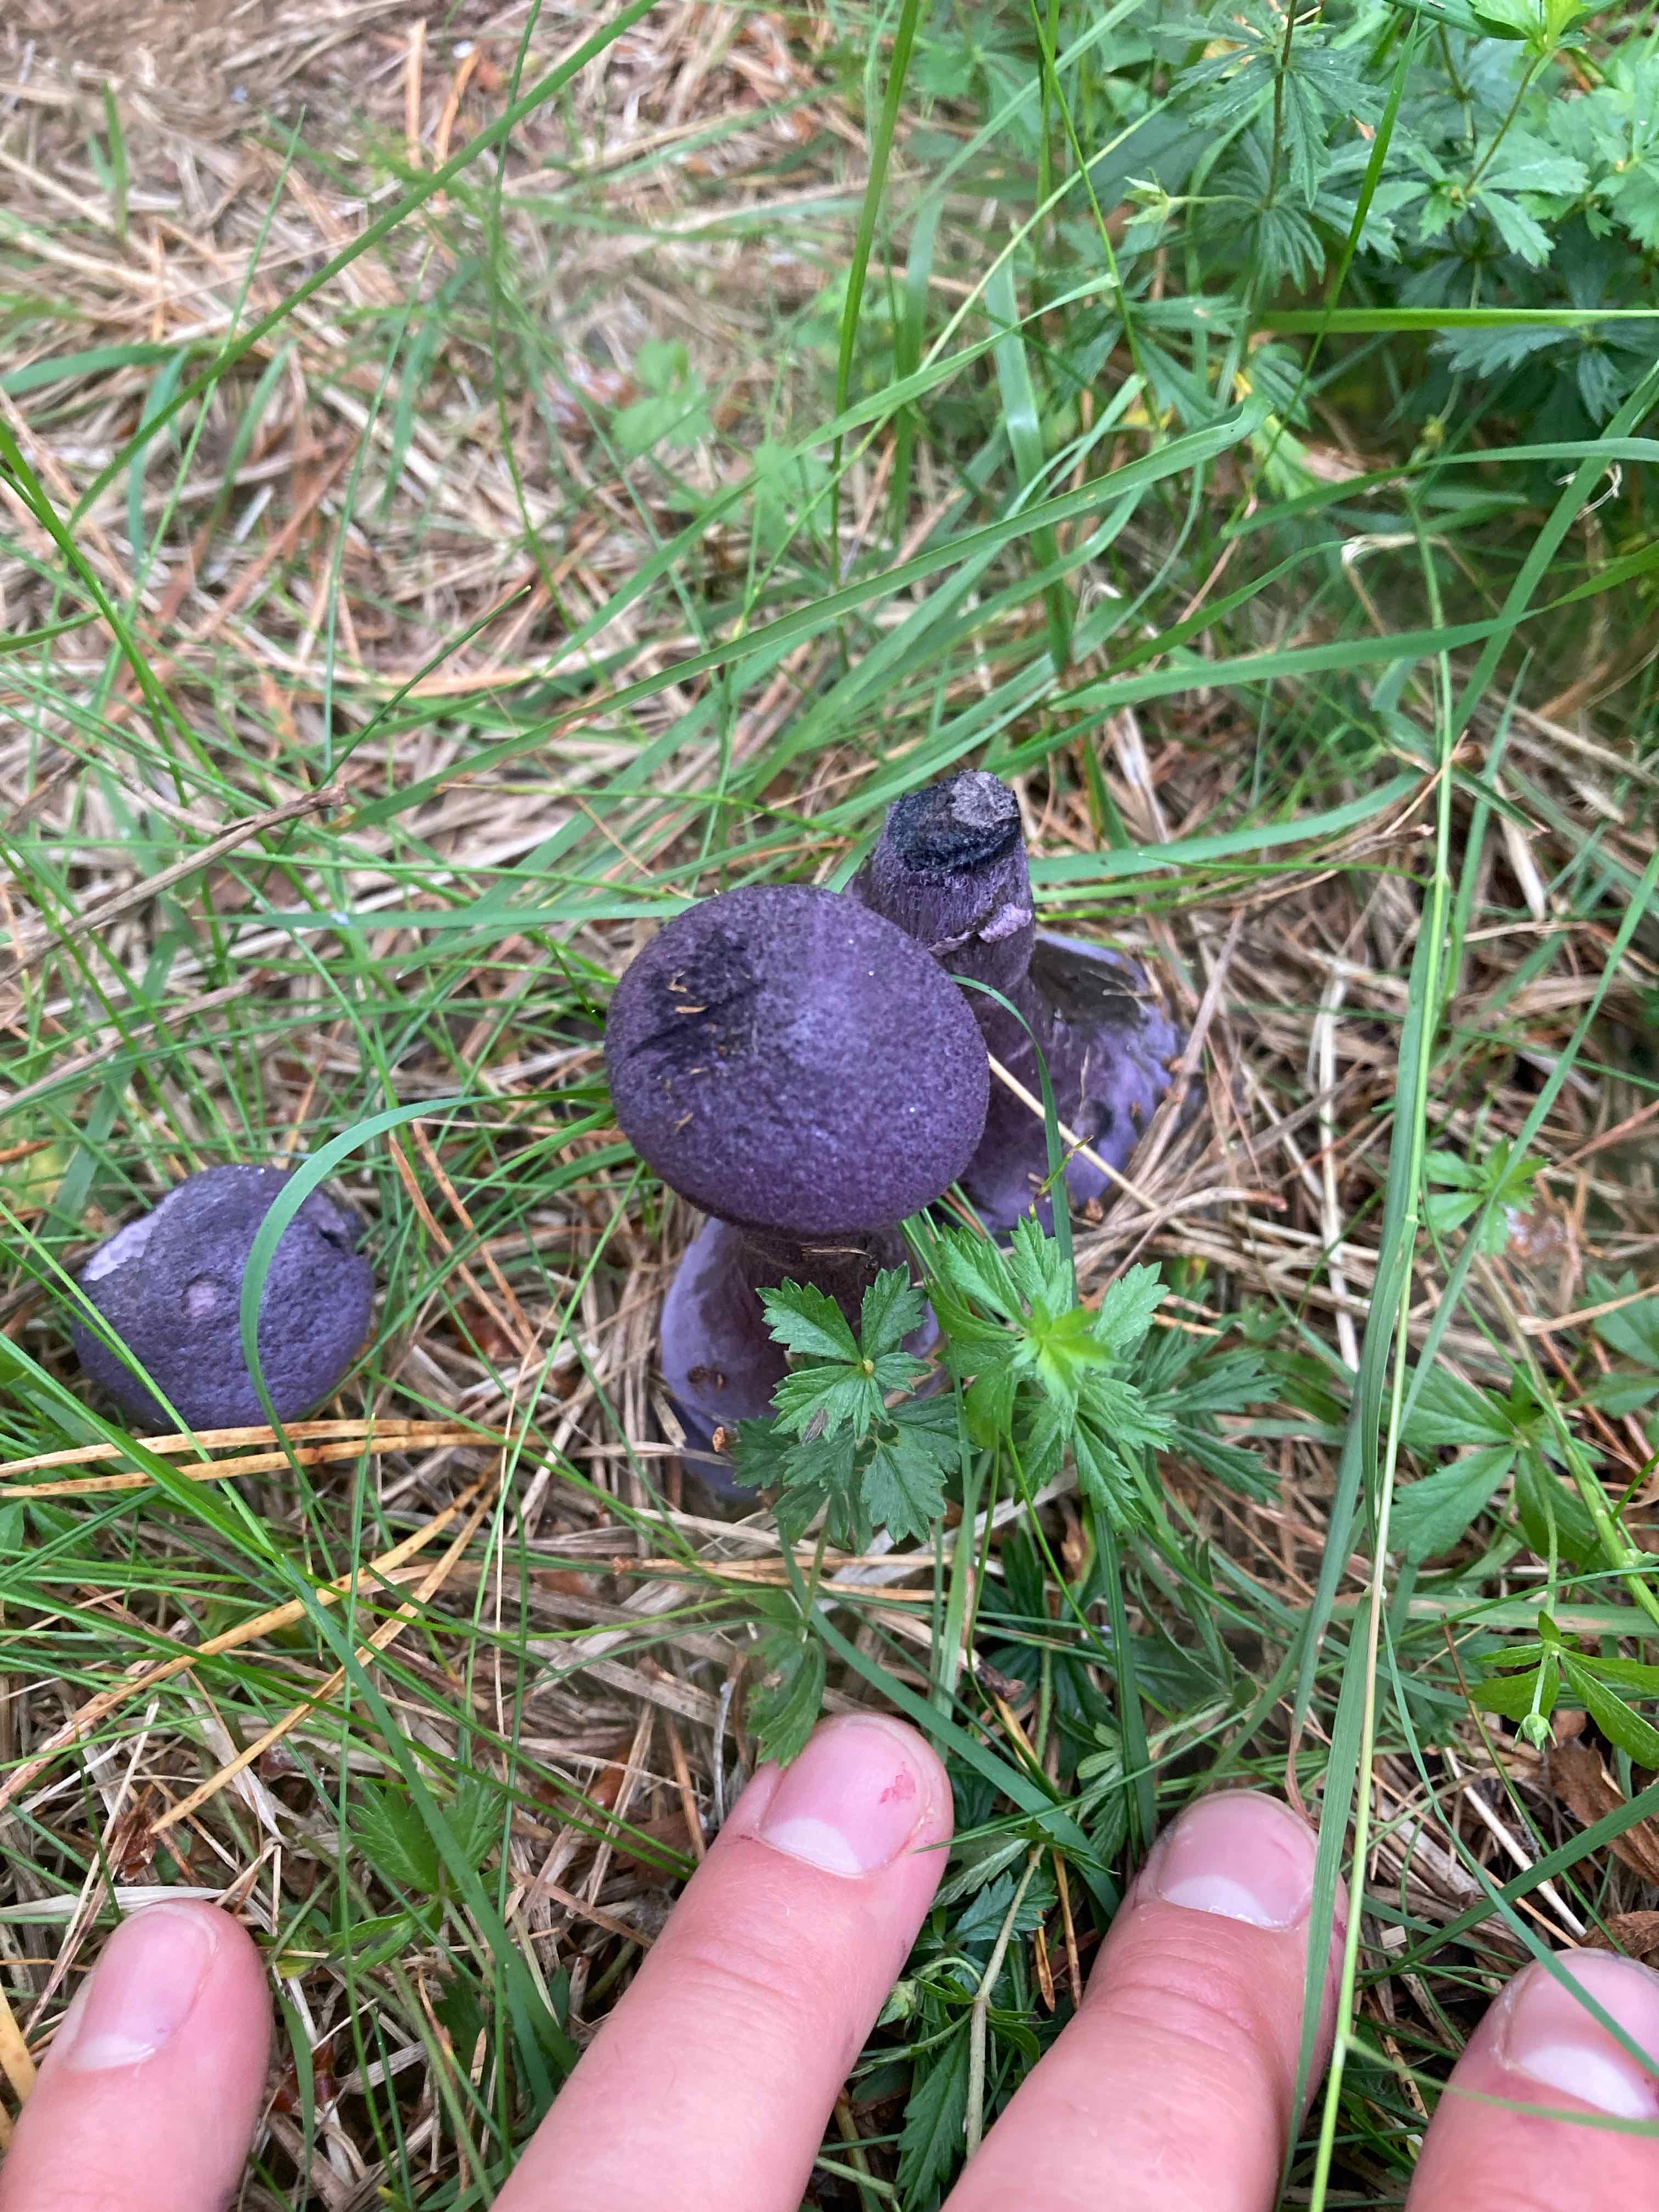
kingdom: Fungi
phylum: Basidiomycota
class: Agaricomycetes
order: Agaricales
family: Cortinariaceae
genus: Cortinarius
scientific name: Cortinarius
